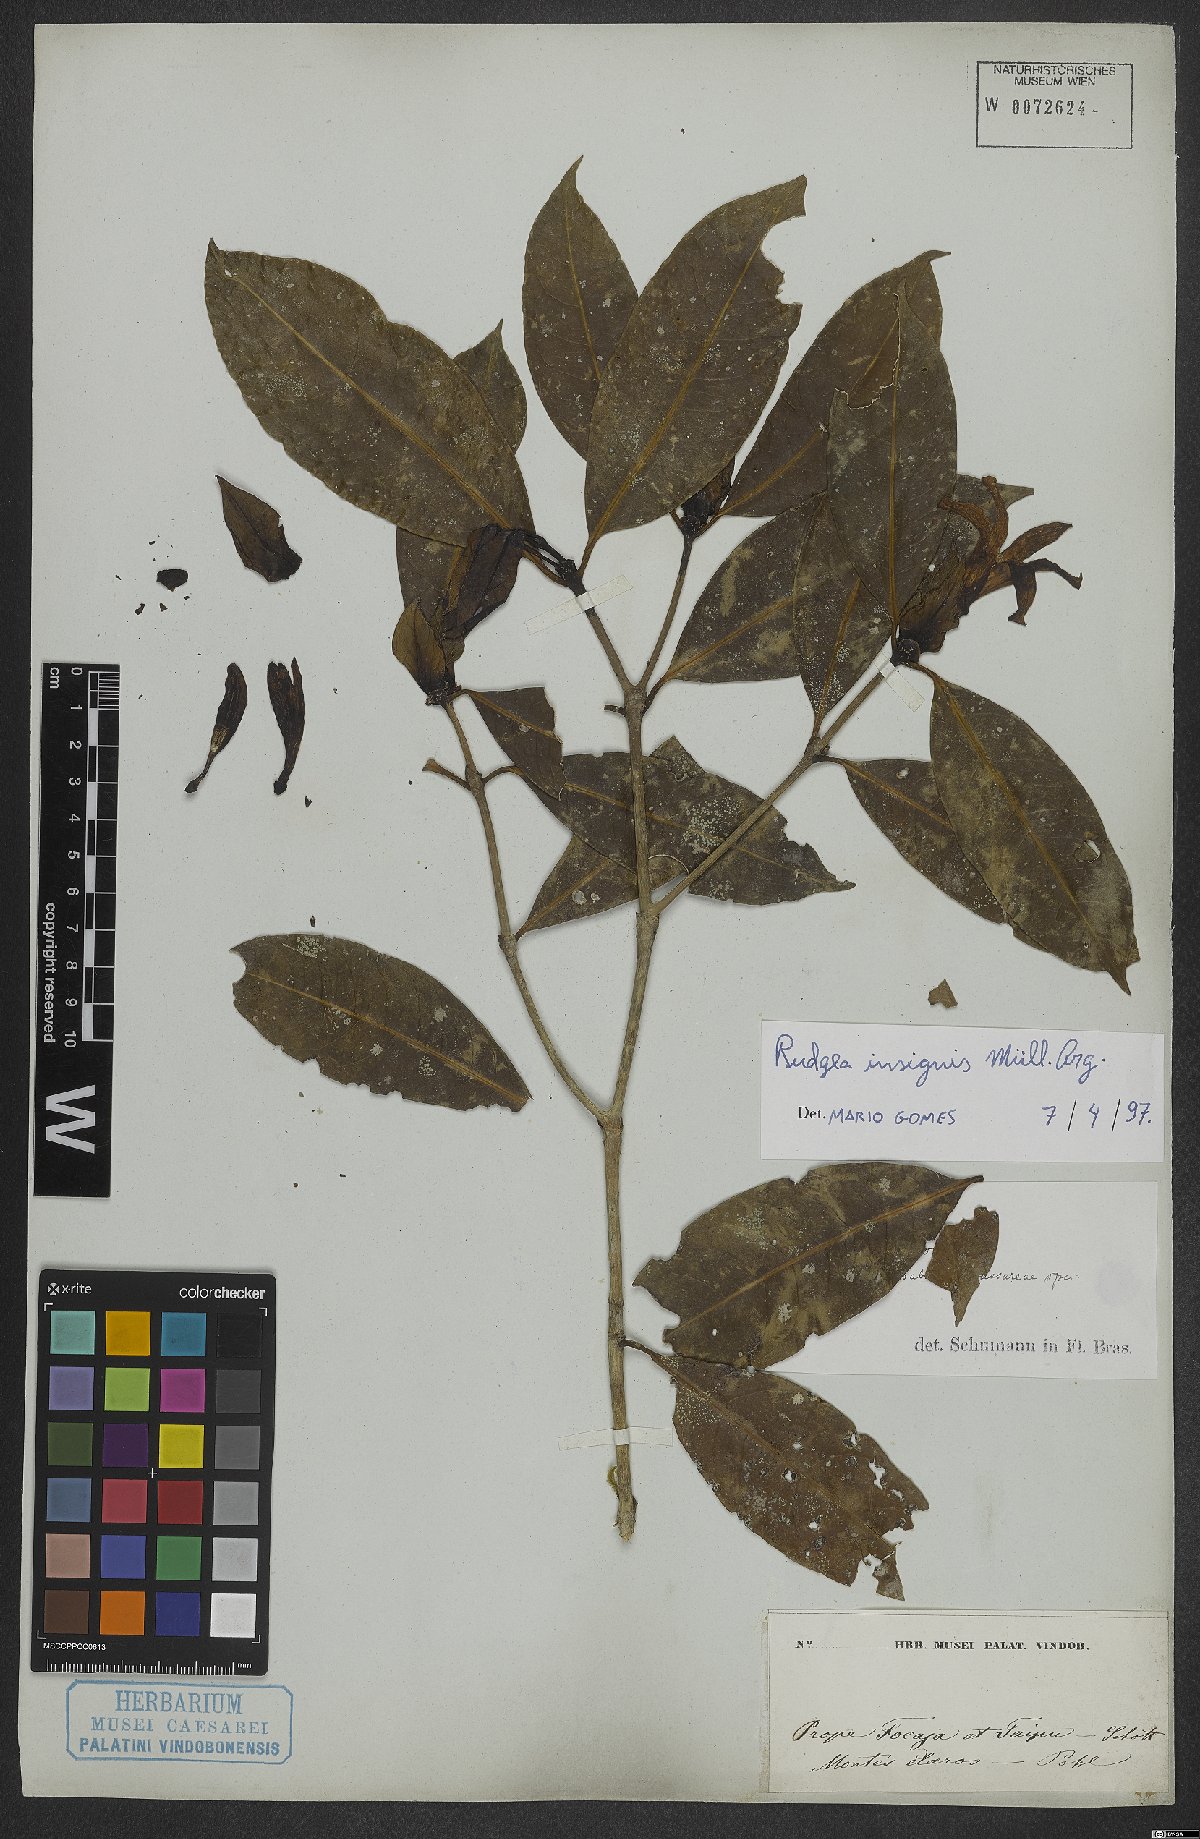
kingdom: Plantae
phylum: Tracheophyta
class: Magnoliopsida
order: Gentianales
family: Rubiaceae
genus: Rudgea
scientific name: Rudgea insignis
